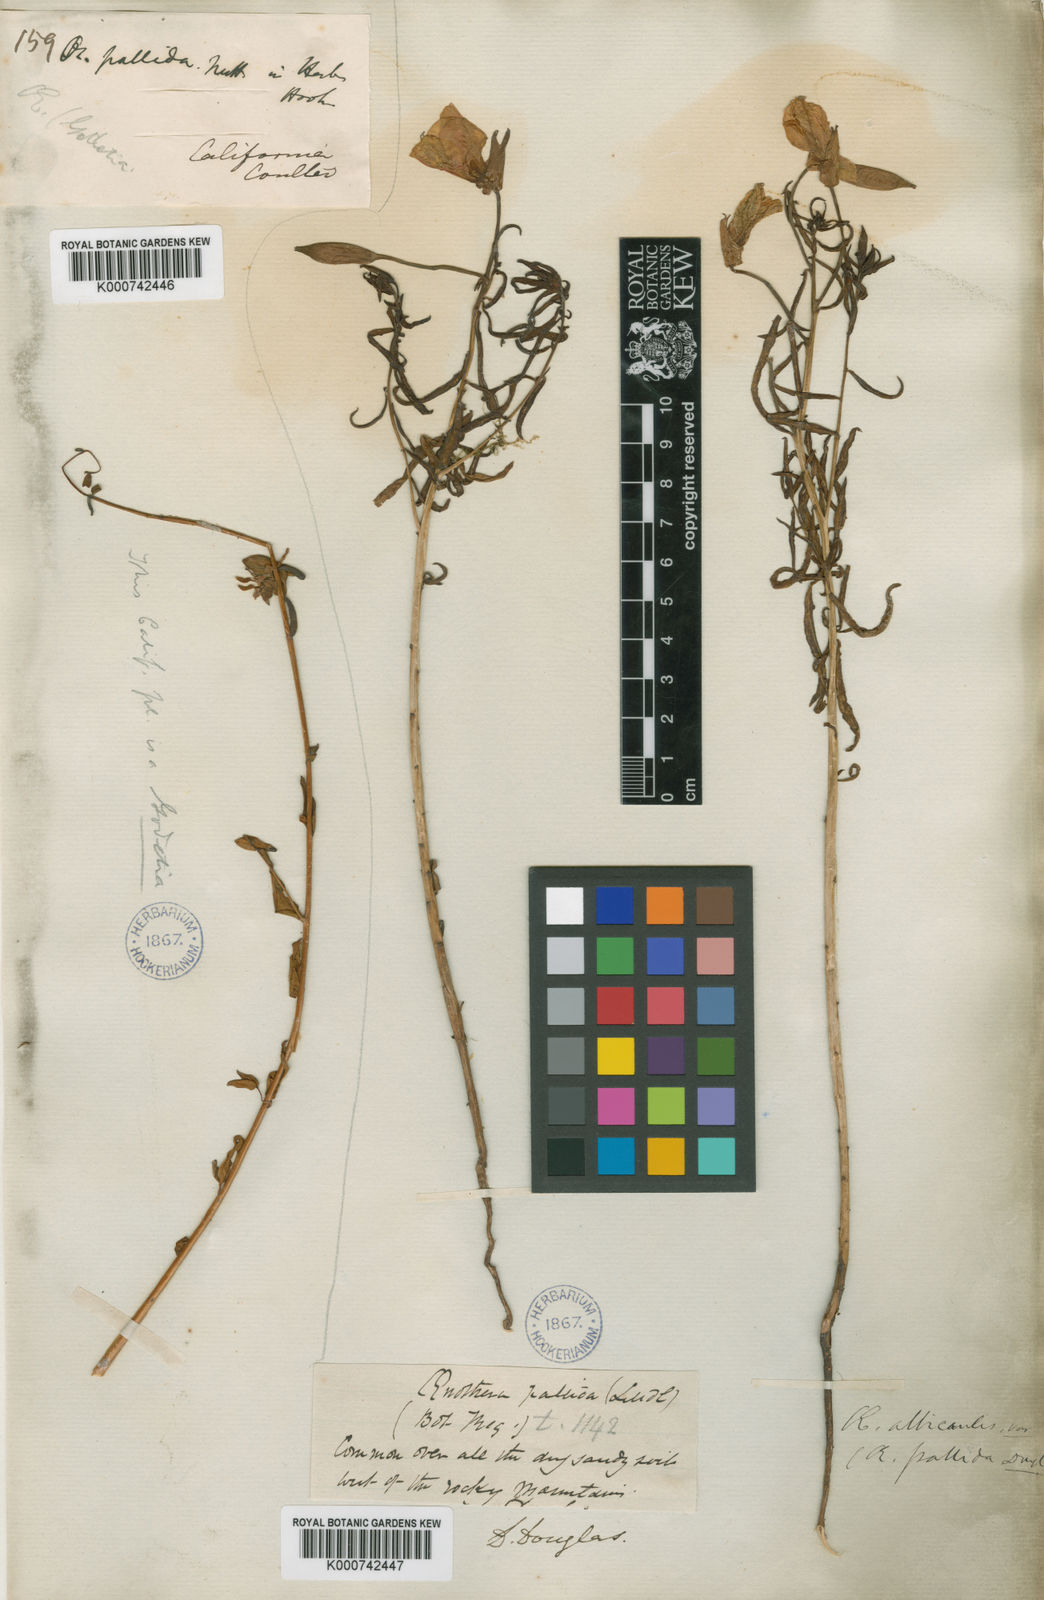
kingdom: Plantae
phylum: Tracheophyta
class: Magnoliopsida
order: Myrtales
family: Onagraceae
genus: Oenothera
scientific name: Oenothera pallida
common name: Pale evening-primrose
